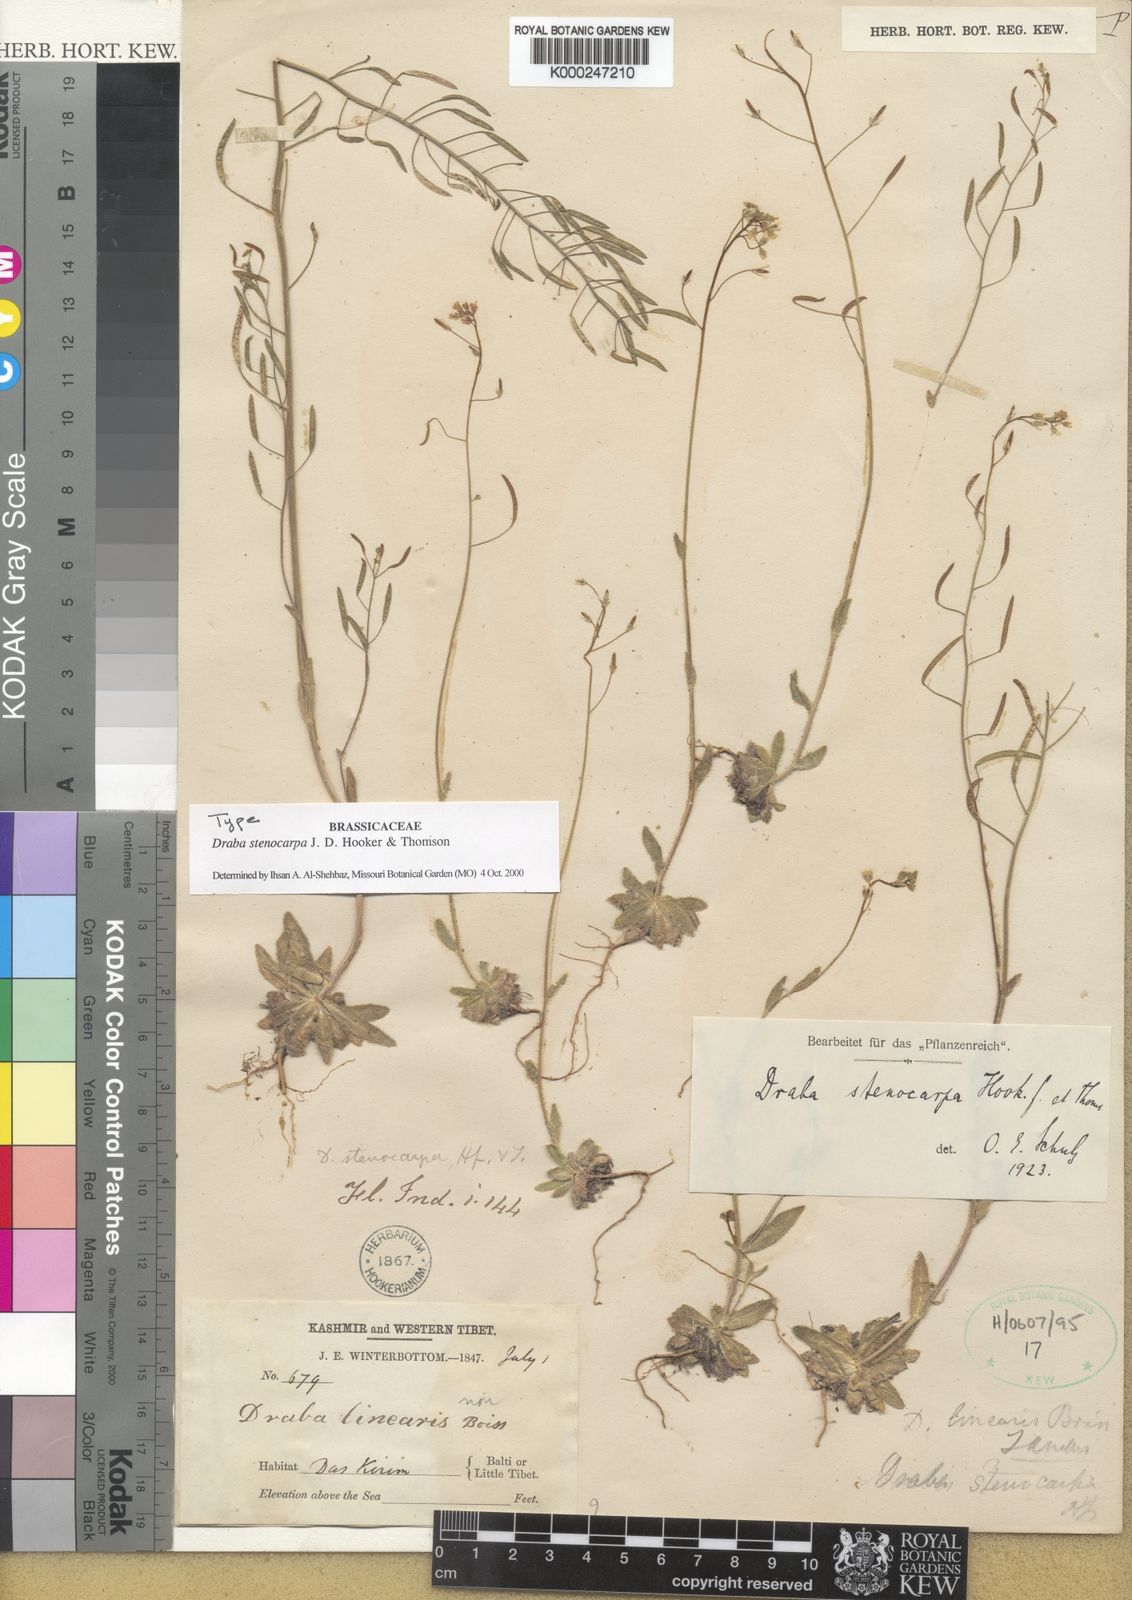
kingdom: Plantae
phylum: Tracheophyta
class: Magnoliopsida
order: Brassicales
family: Brassicaceae
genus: Draba
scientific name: Draba stenocarpa
